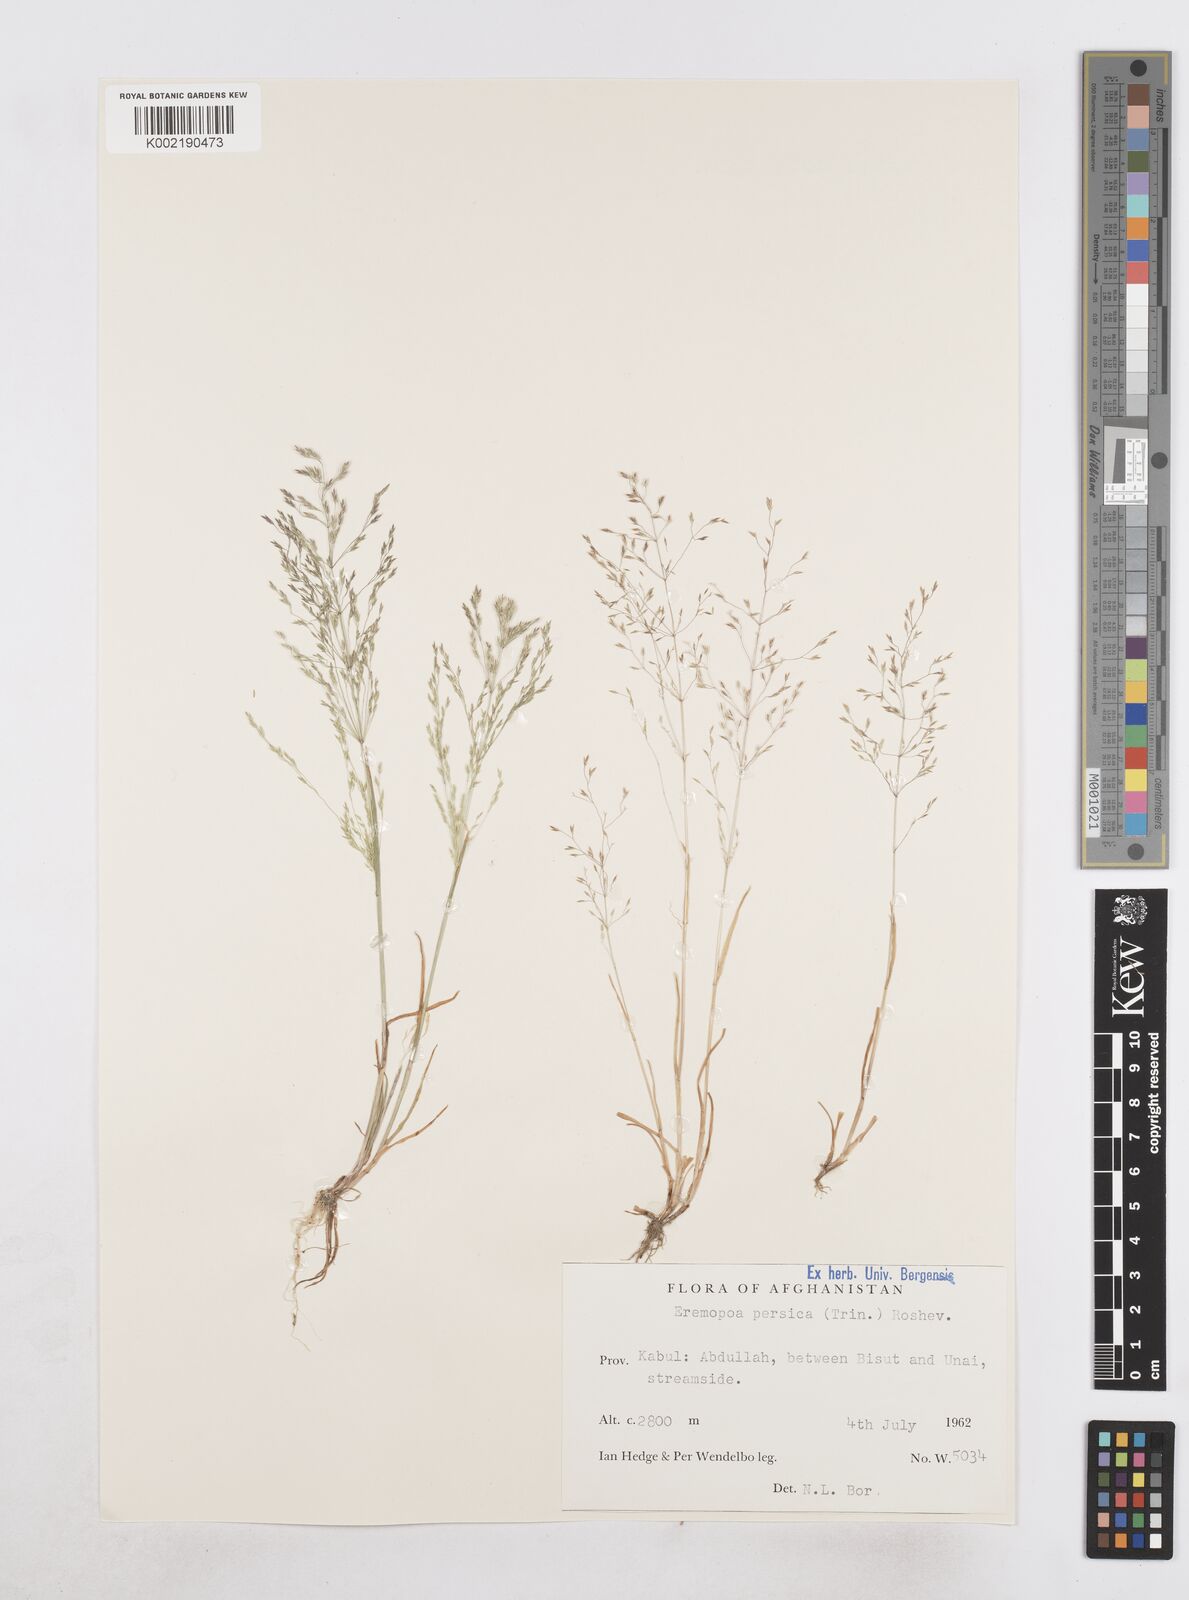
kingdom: Plantae
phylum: Tracheophyta
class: Liliopsida
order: Poales
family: Poaceae
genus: Poa
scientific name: Poa diaphora
